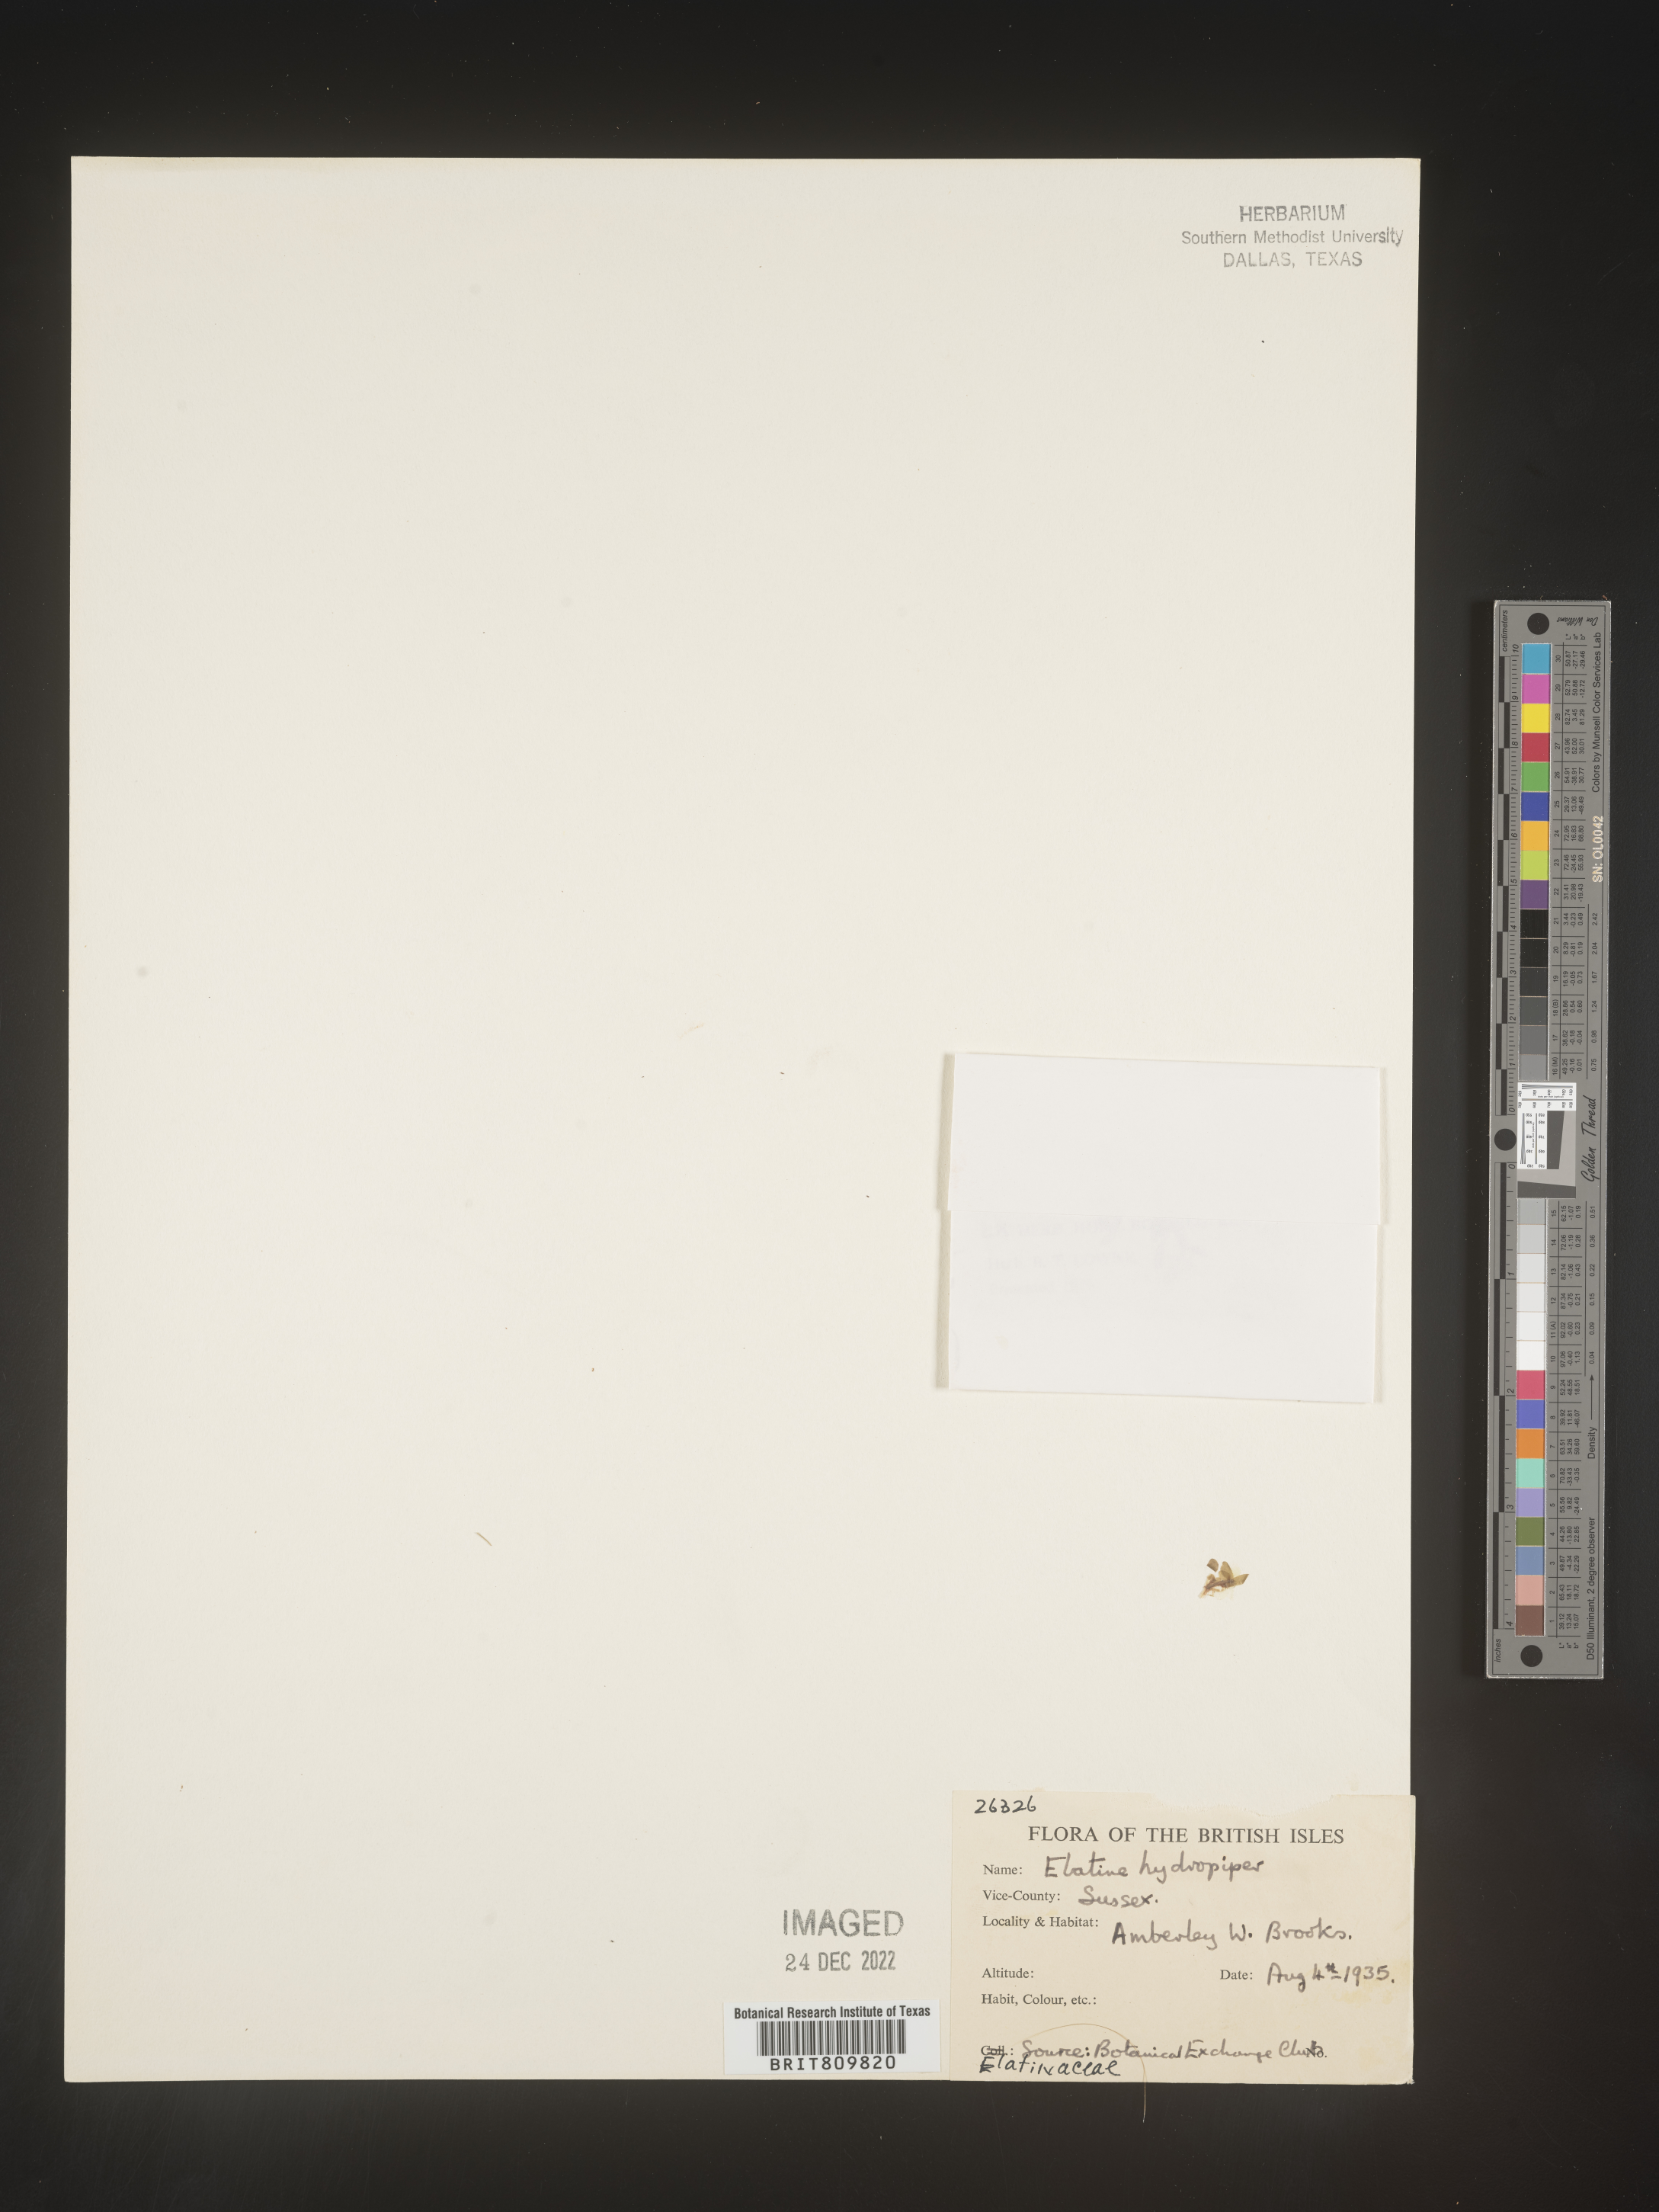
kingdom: Plantae
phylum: Tracheophyta
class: Magnoliopsida
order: Malpighiales
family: Elatinaceae
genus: Elatine
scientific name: Elatine
